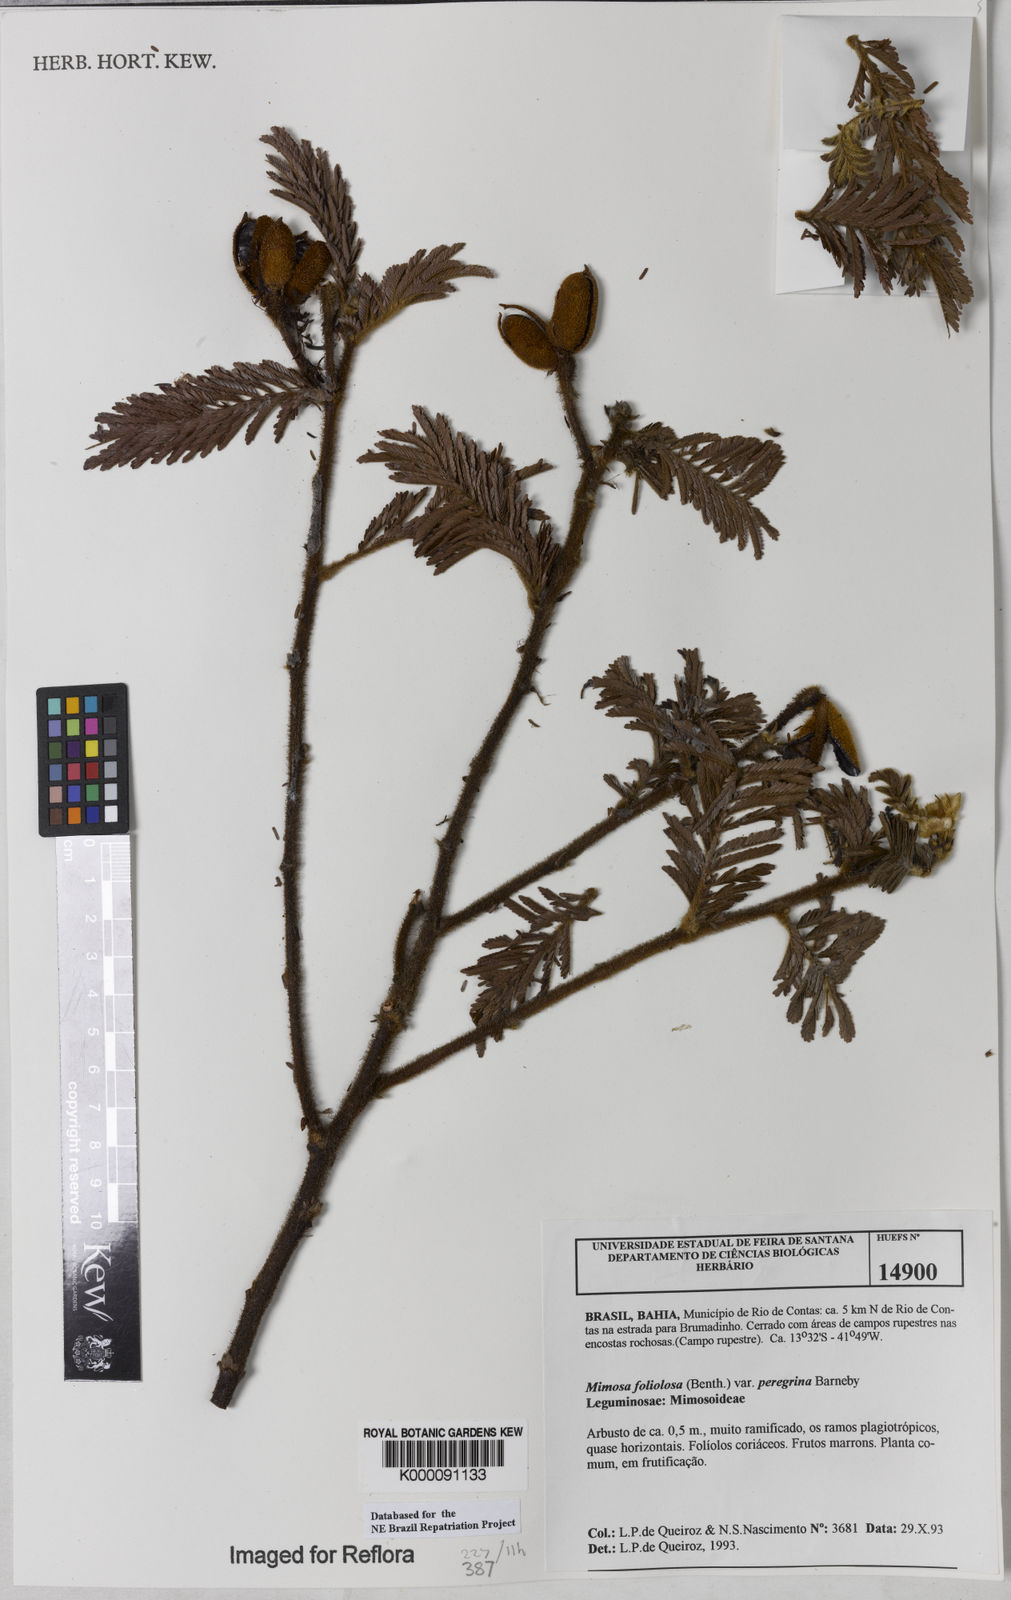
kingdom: Plantae
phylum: Tracheophyta
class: Magnoliopsida
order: Fabales
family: Fabaceae
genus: Mimosa
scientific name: Mimosa foliolosa
